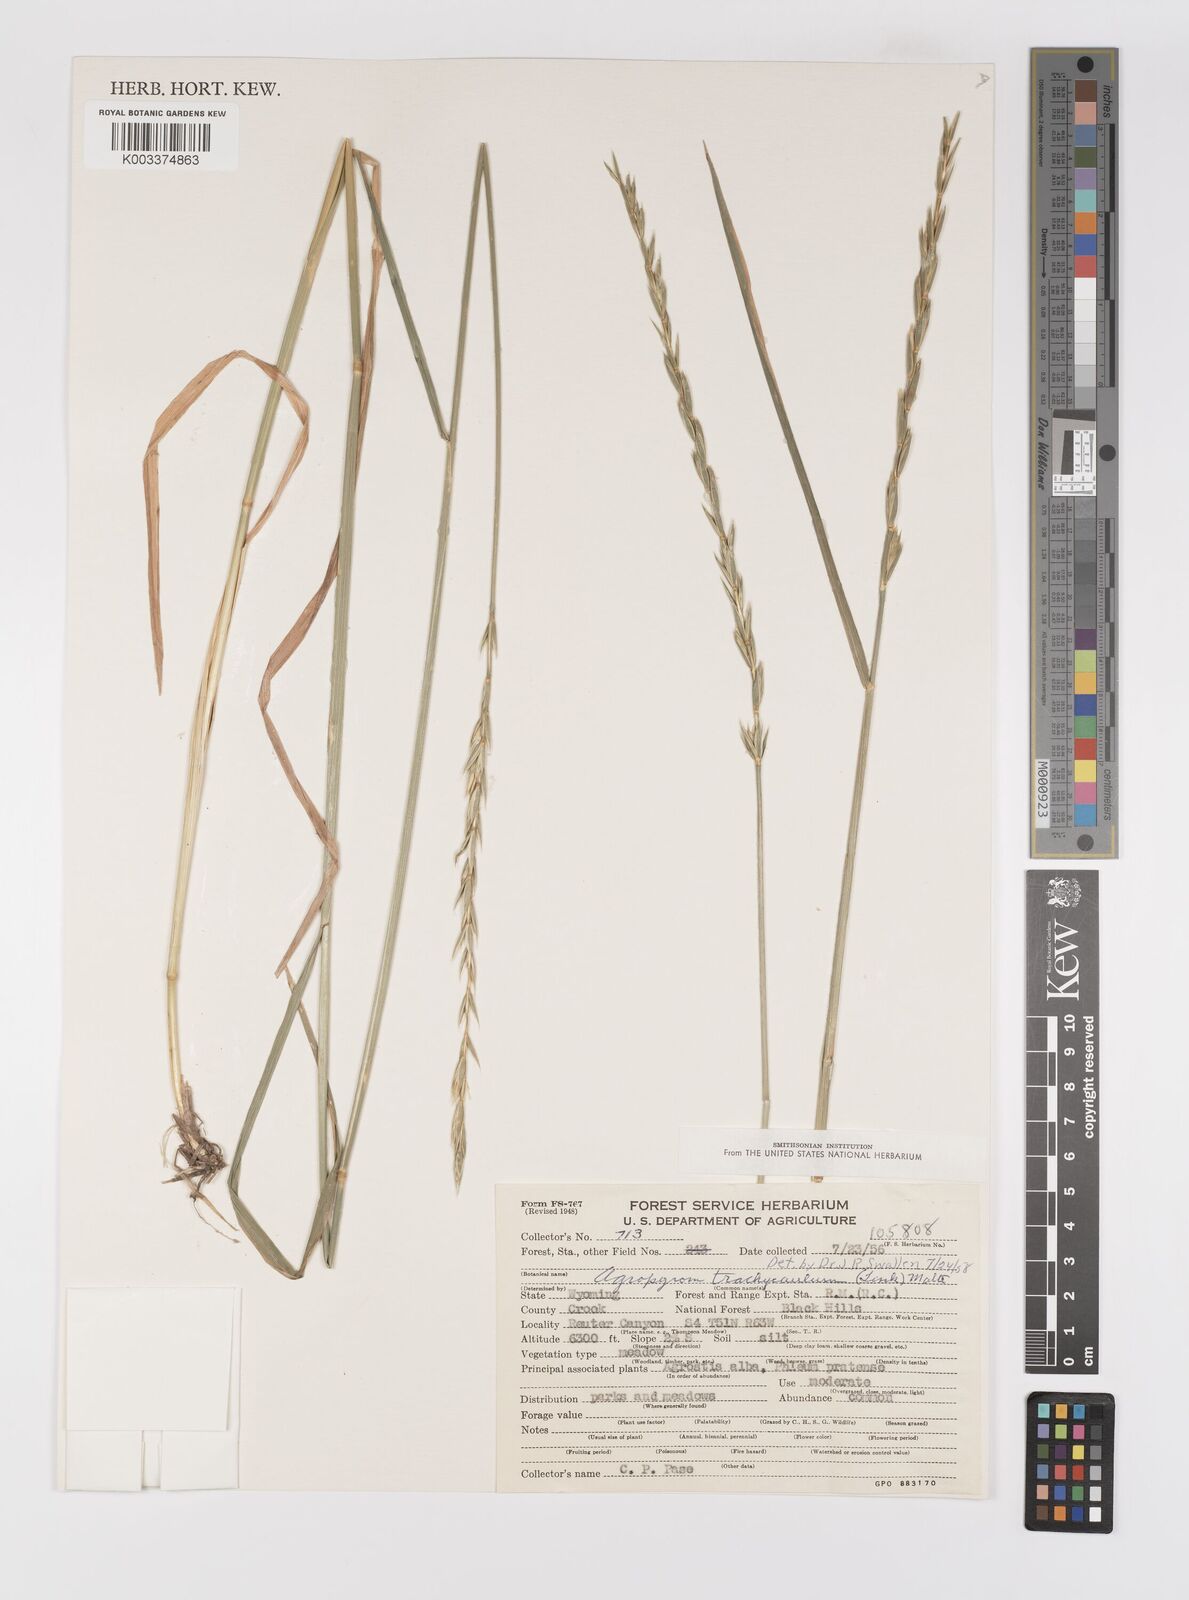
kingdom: Plantae
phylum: Tracheophyta
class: Liliopsida
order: Poales
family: Poaceae
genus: Elymus
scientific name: Elymus violaceus
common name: Arctic wheatgrass
